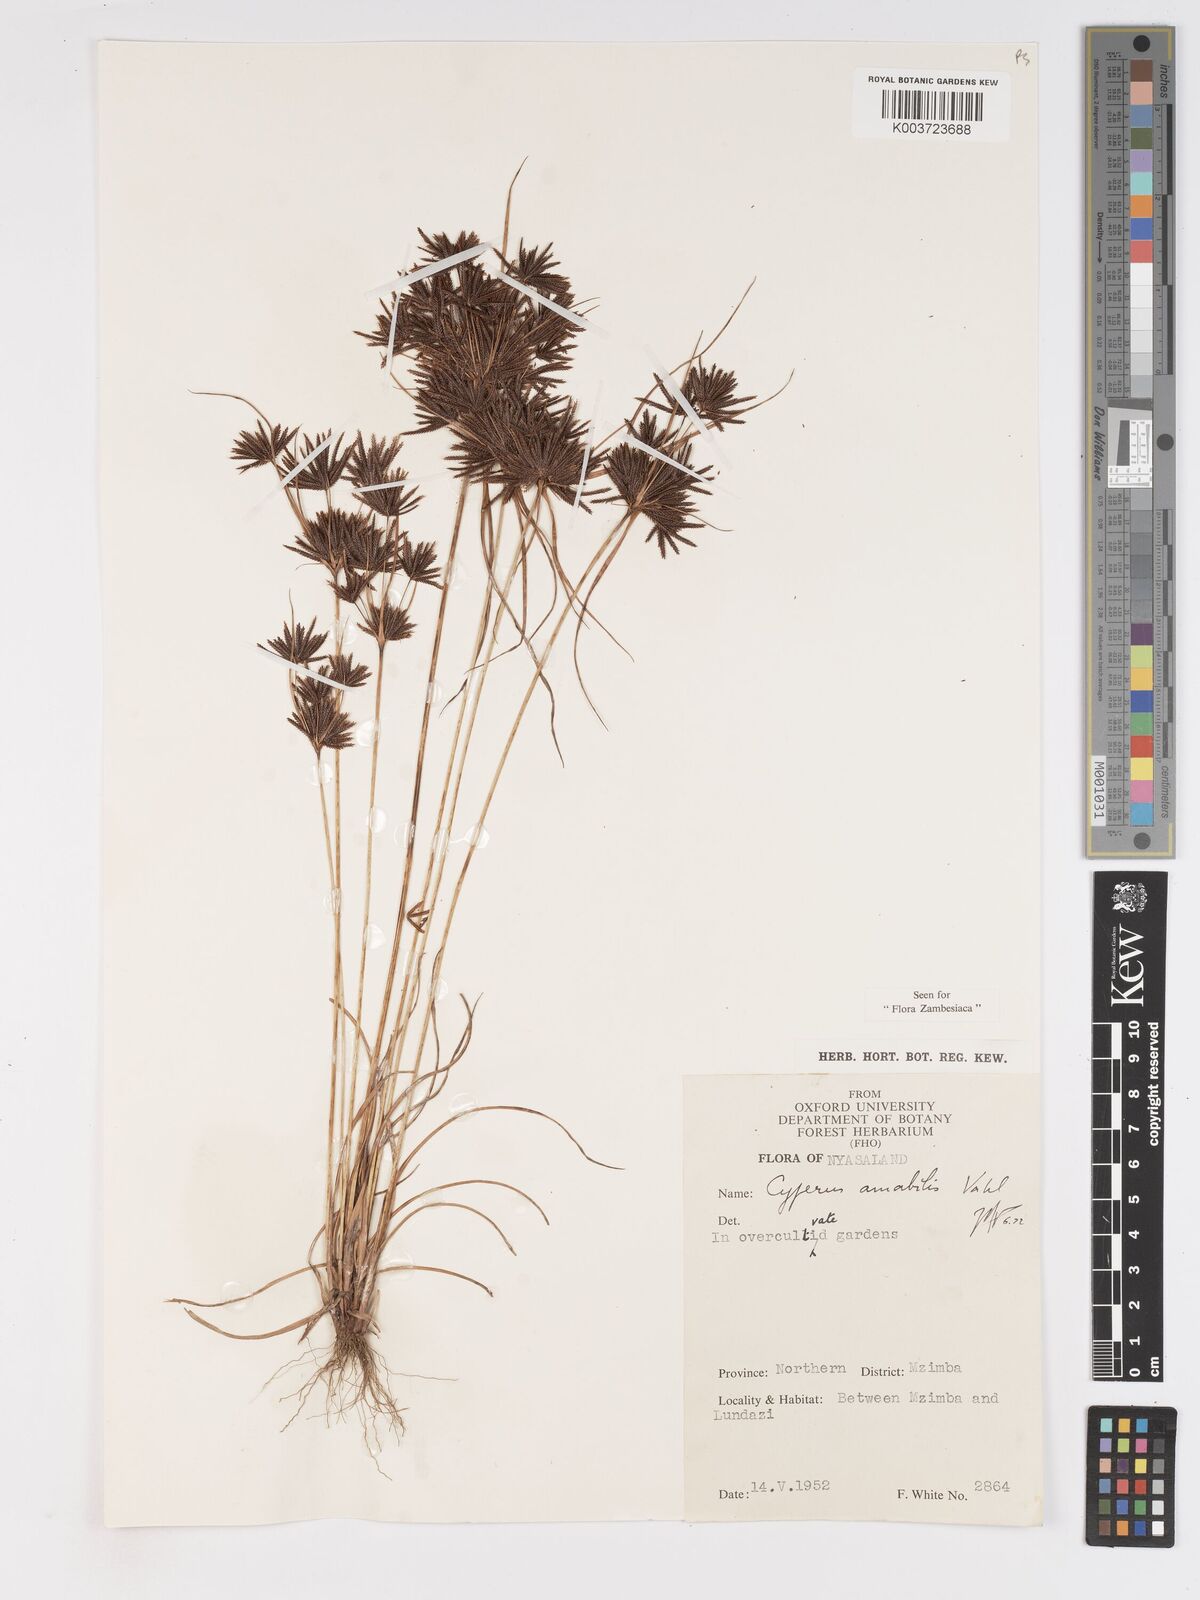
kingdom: Plantae
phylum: Tracheophyta
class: Liliopsida
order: Poales
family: Cyperaceae
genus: Cyperus
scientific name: Cyperus amabilis
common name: Foothill flat sedge
